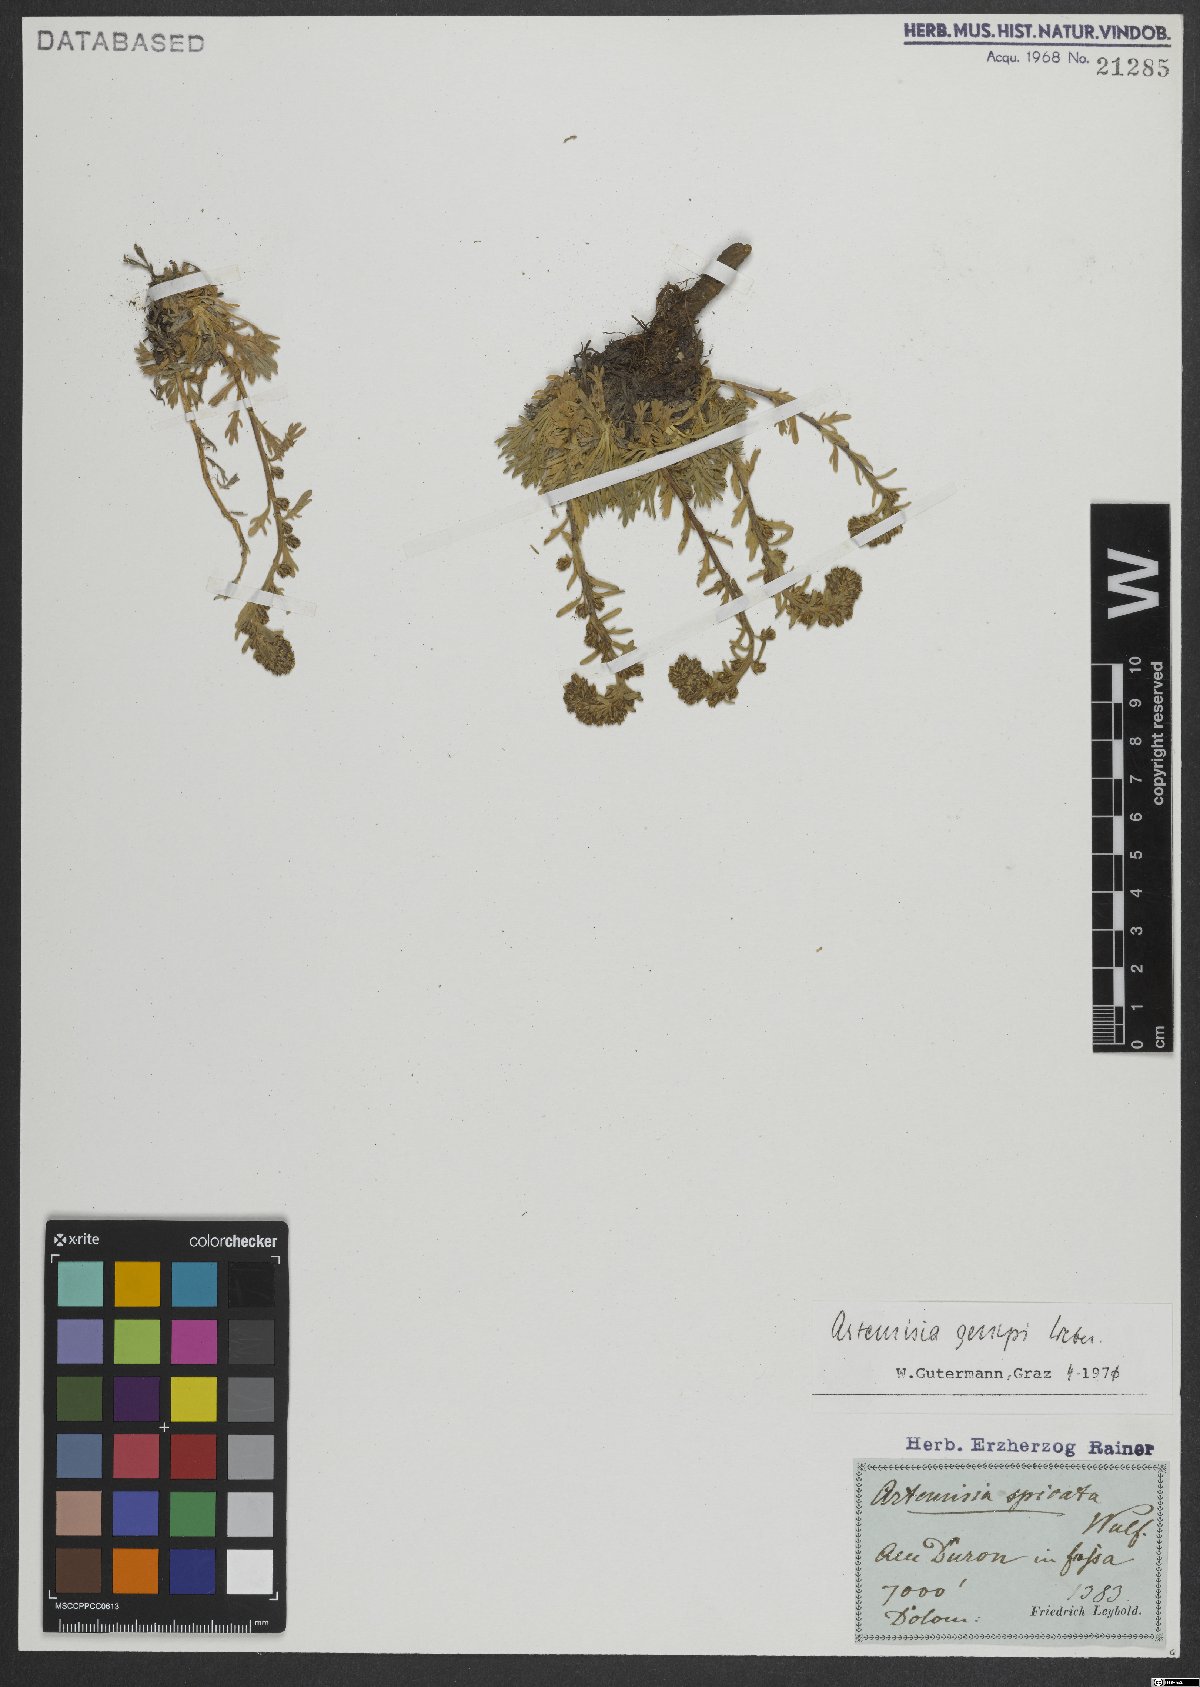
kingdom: Plantae
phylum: Tracheophyta
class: Magnoliopsida
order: Asterales
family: Asteraceae
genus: Artemisia
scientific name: Artemisia genipi
